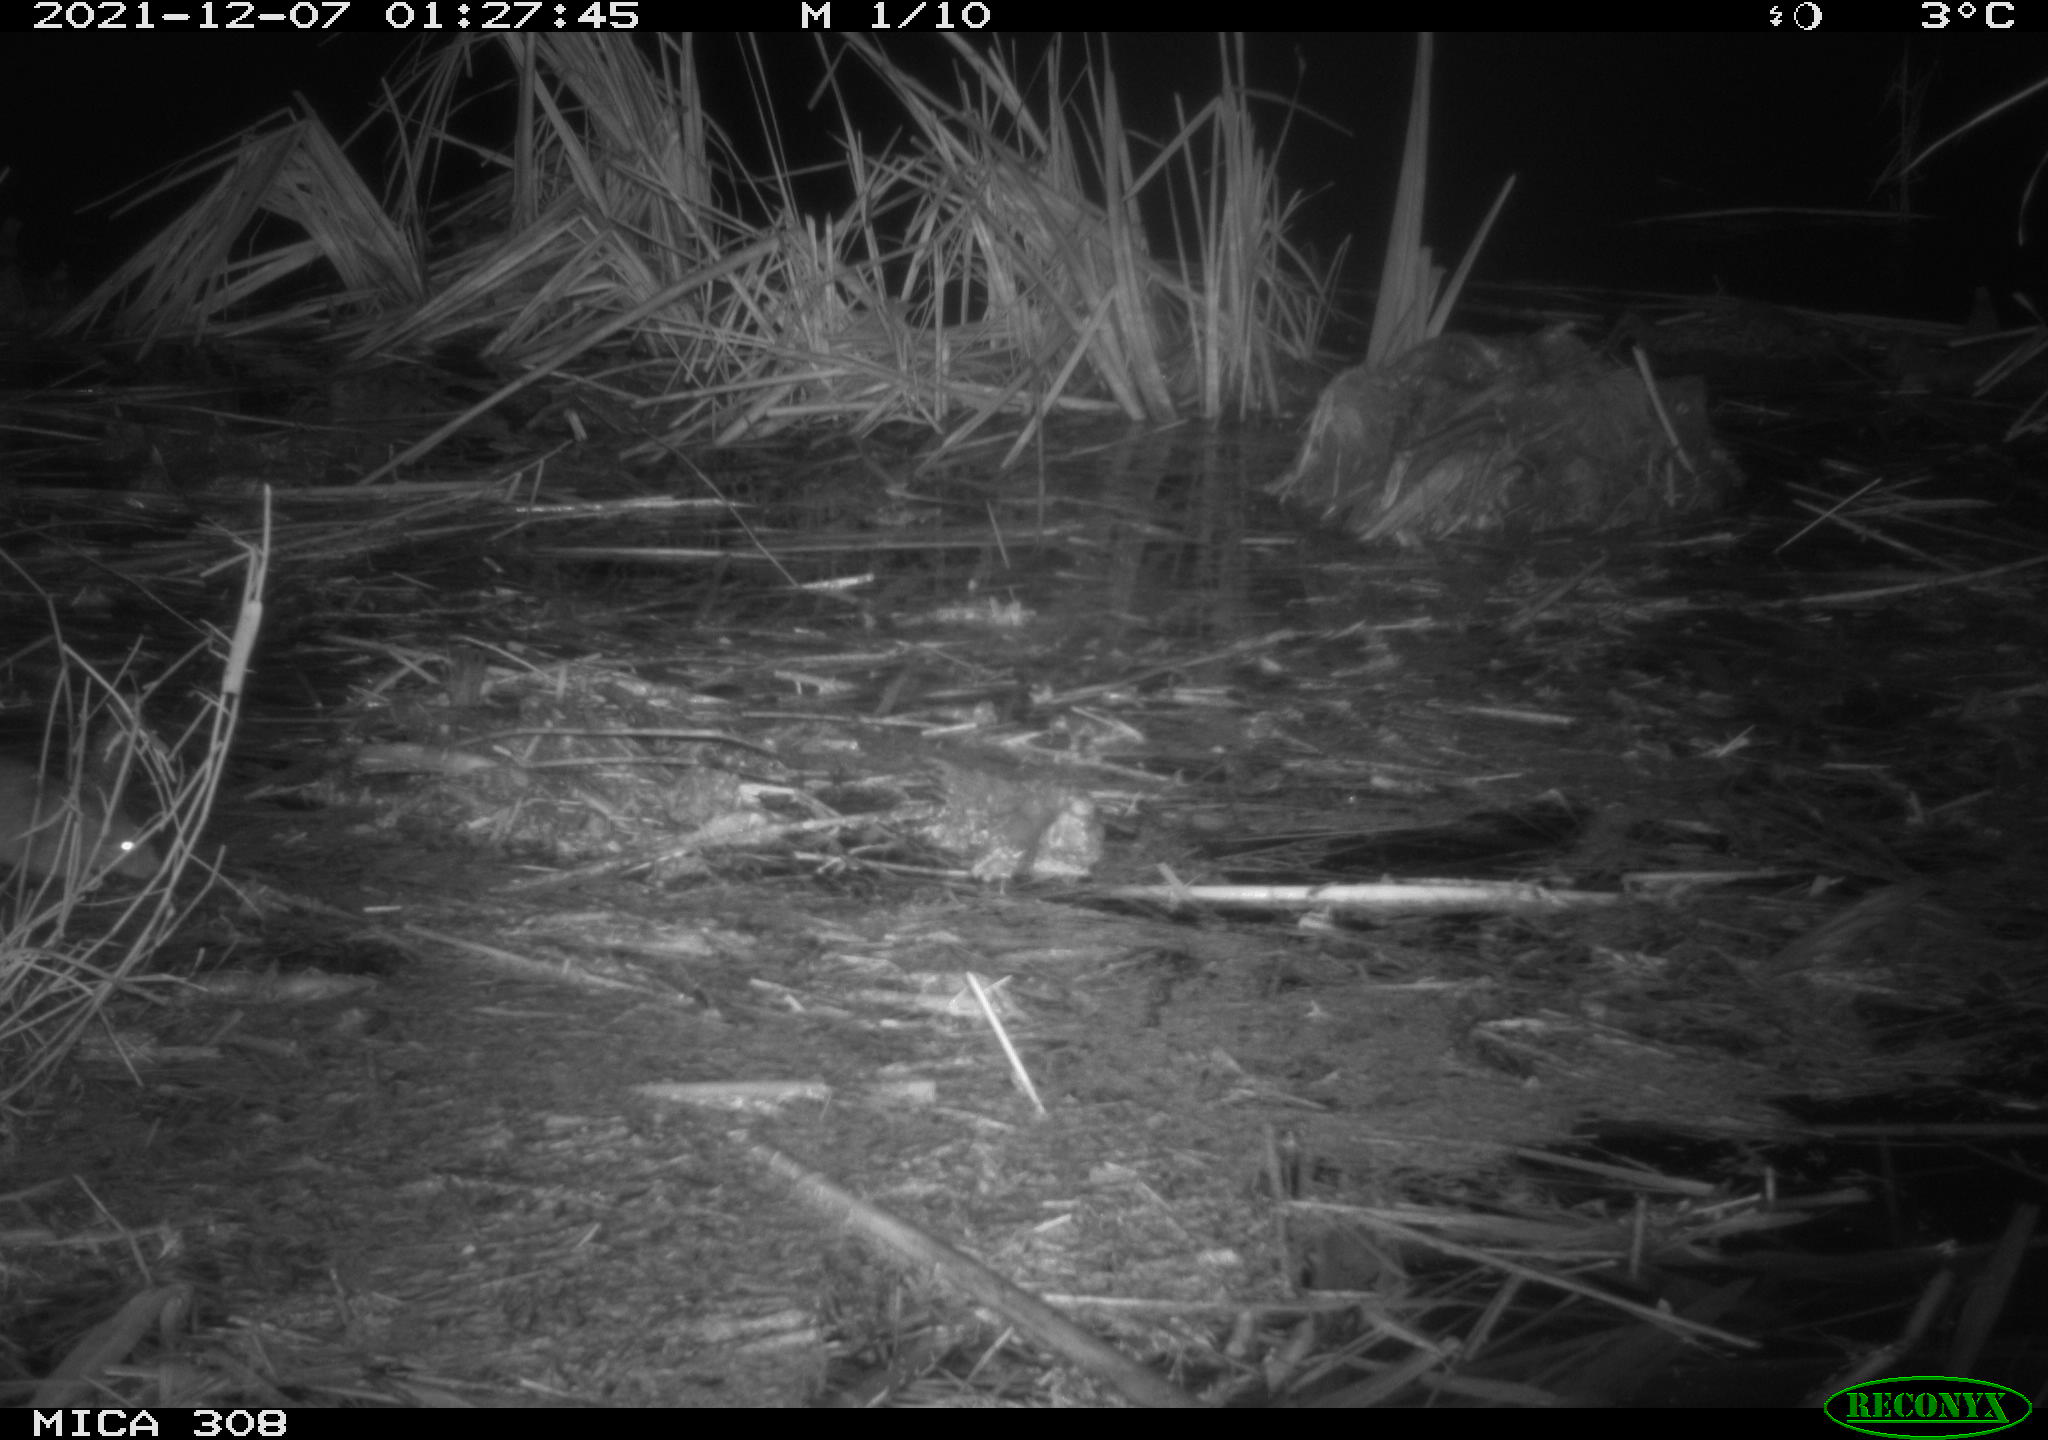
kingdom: Animalia
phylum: Chordata
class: Mammalia
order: Rodentia
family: Muridae
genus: Rattus
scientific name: Rattus norvegicus
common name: Brown rat
